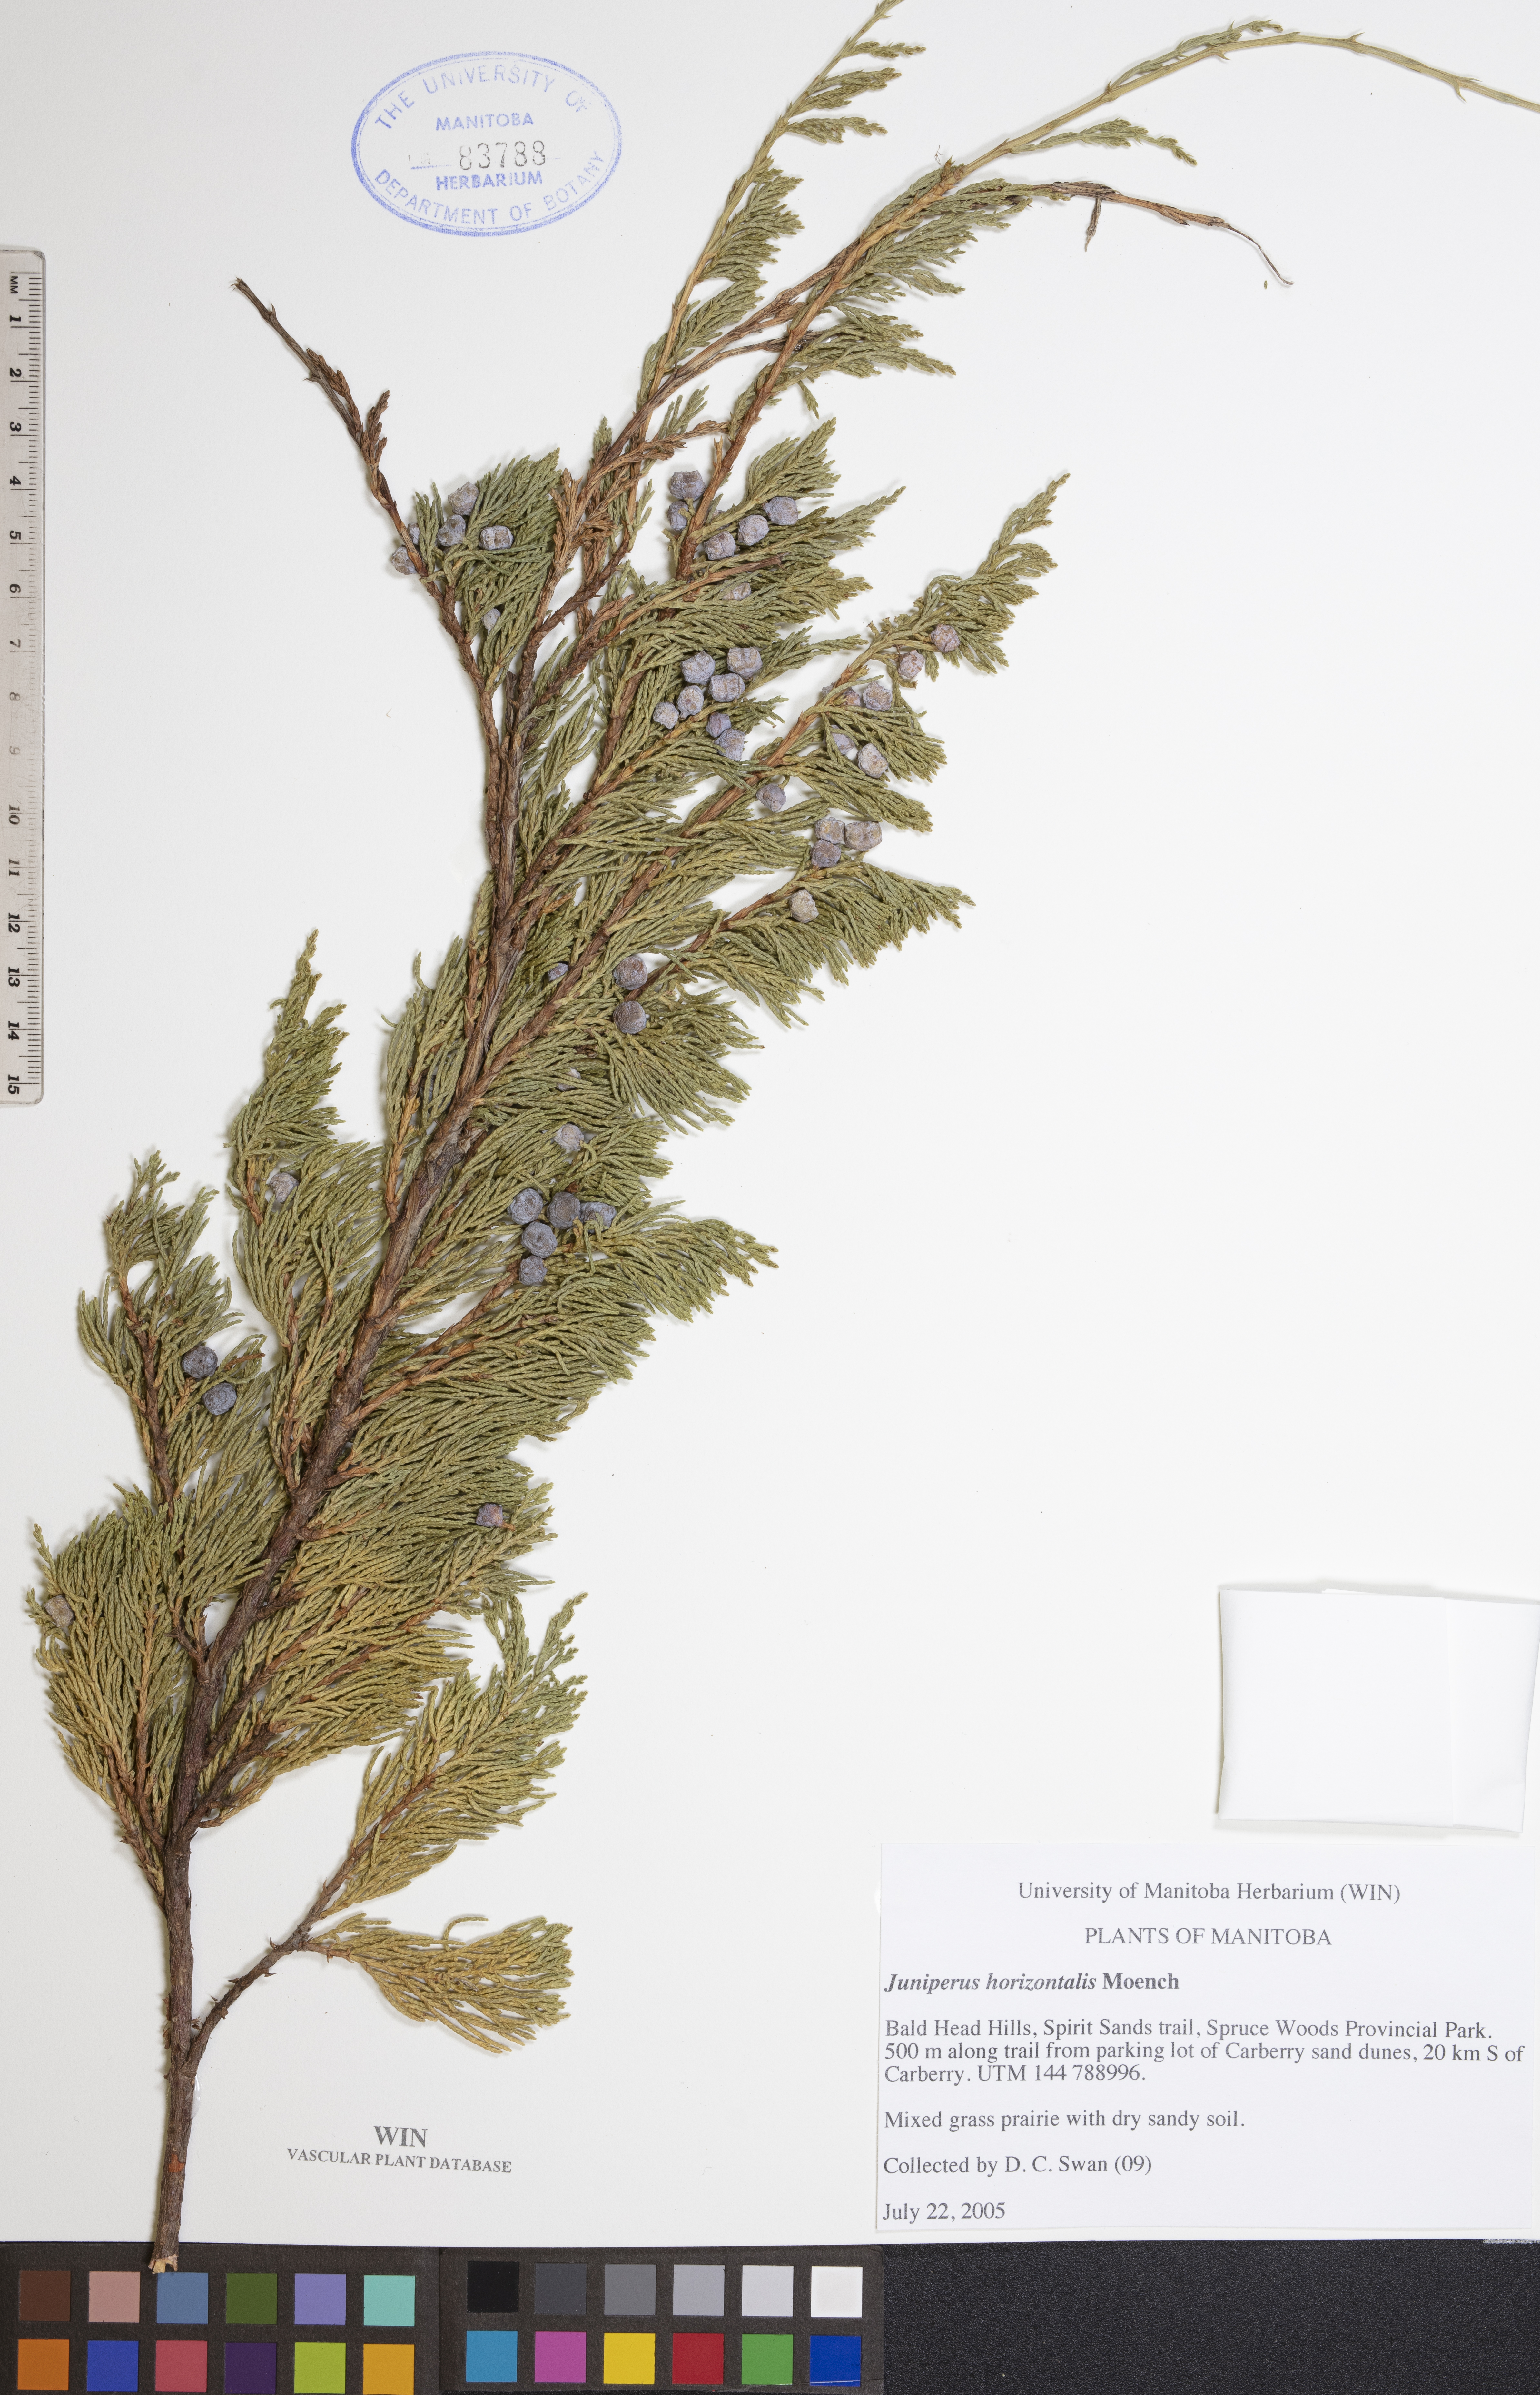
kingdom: Plantae
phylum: Tracheophyta
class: Pinopsida
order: Pinales
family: Cupressaceae
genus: Juniperus
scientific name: Juniperus horizontalis
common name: Creeping juniper
